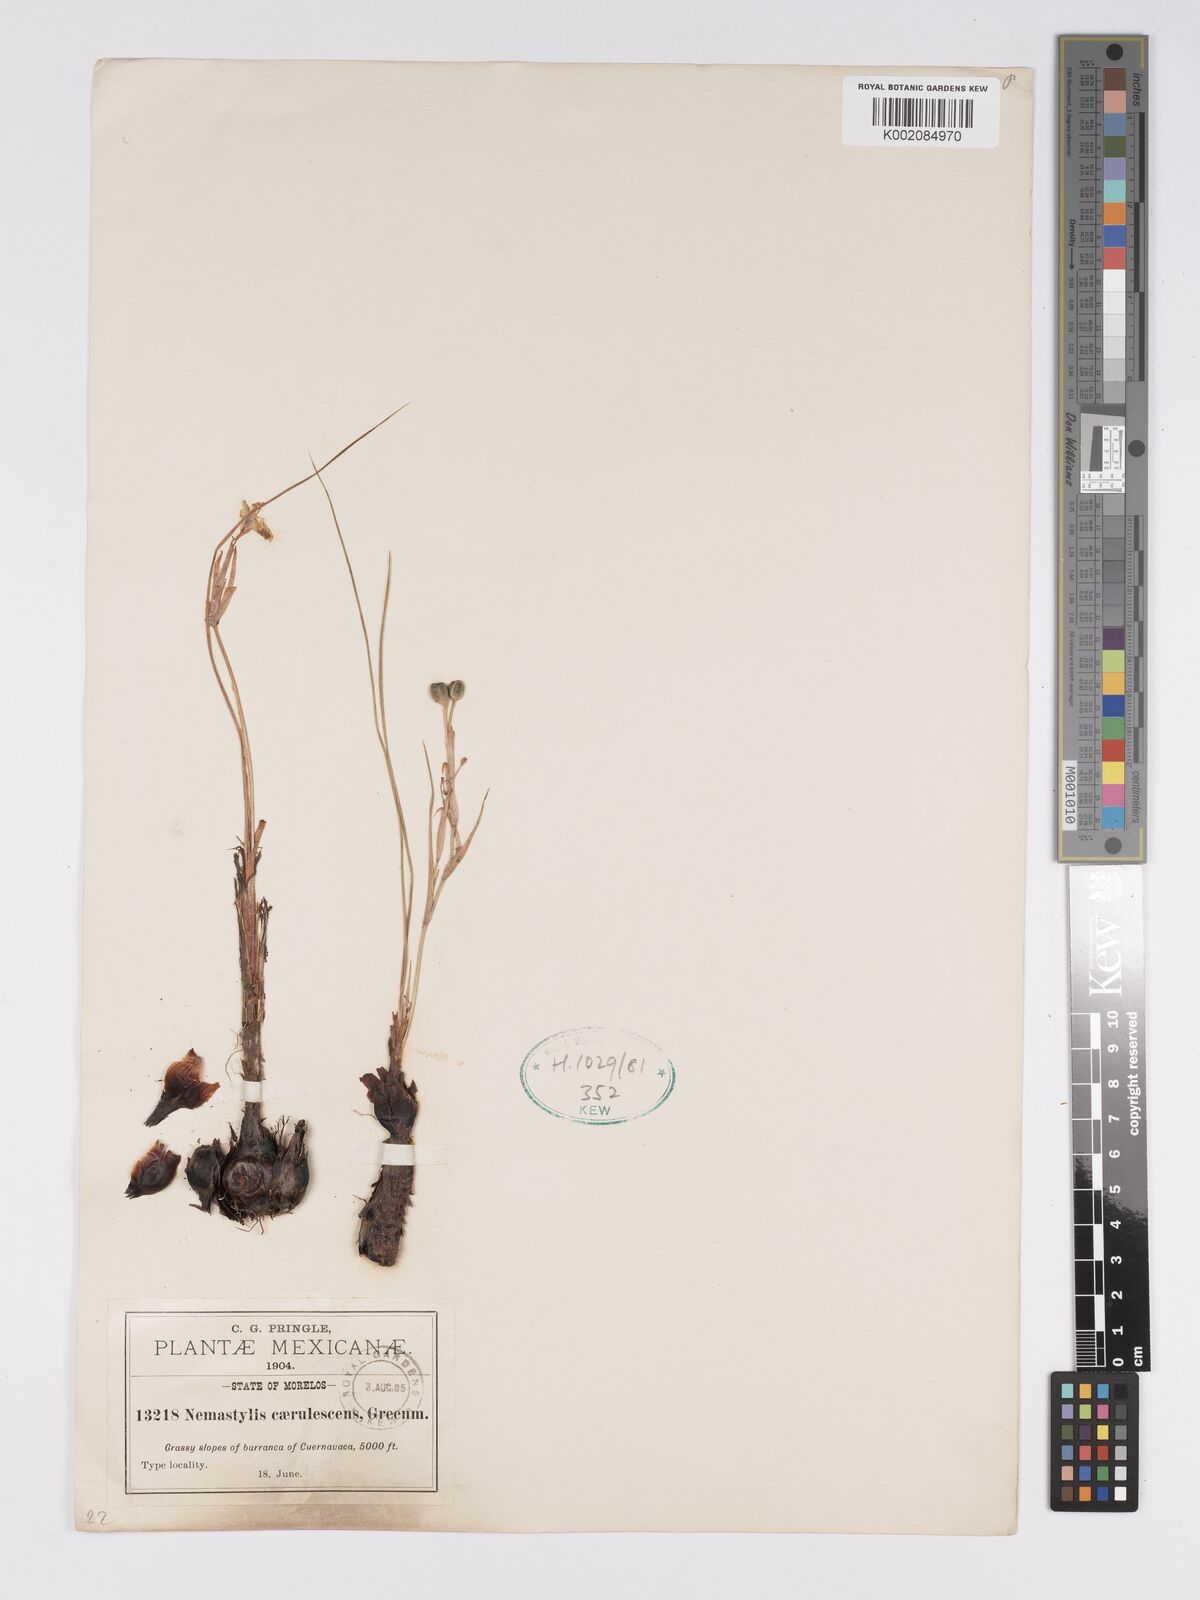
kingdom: Plantae
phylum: Tracheophyta
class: Liliopsida
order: Asparagales
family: Iridaceae
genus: Nemastylis
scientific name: Nemastylis tenuis
